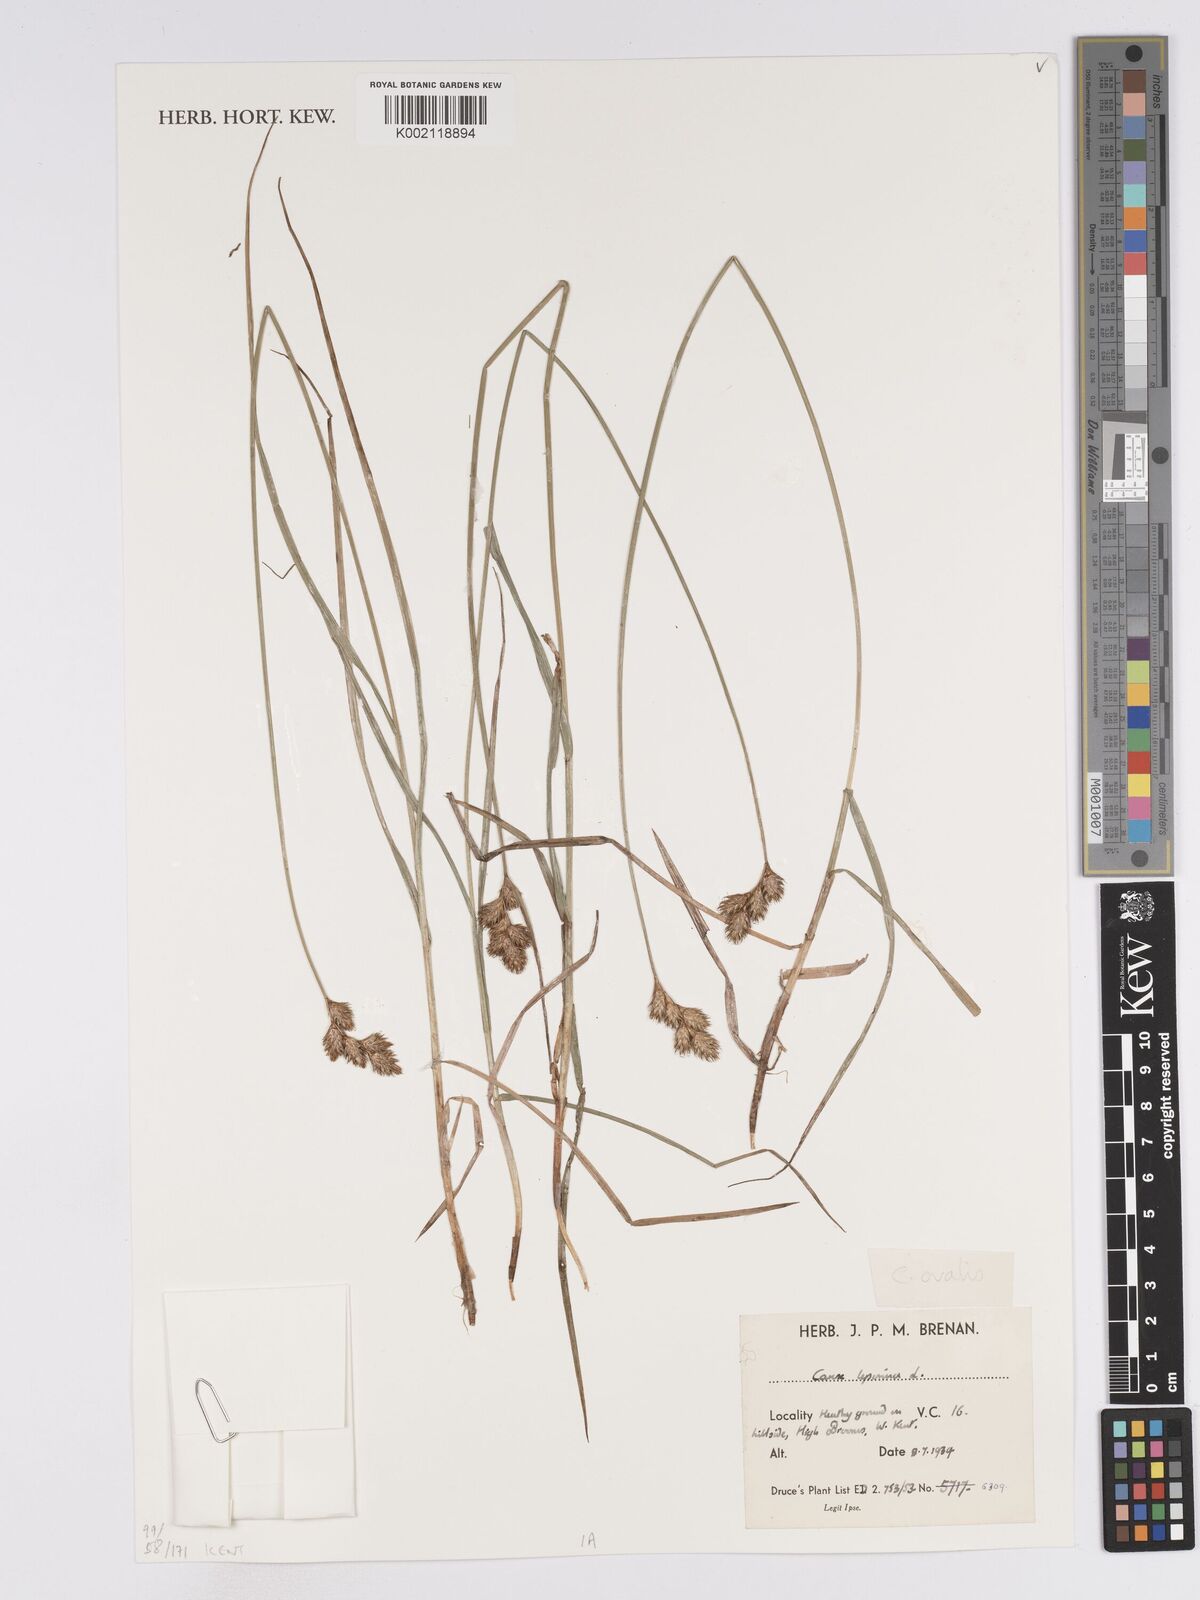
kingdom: Plantae
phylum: Tracheophyta
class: Liliopsida
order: Poales
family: Cyperaceae
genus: Carex
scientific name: Carex leporina
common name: Oval sedge
